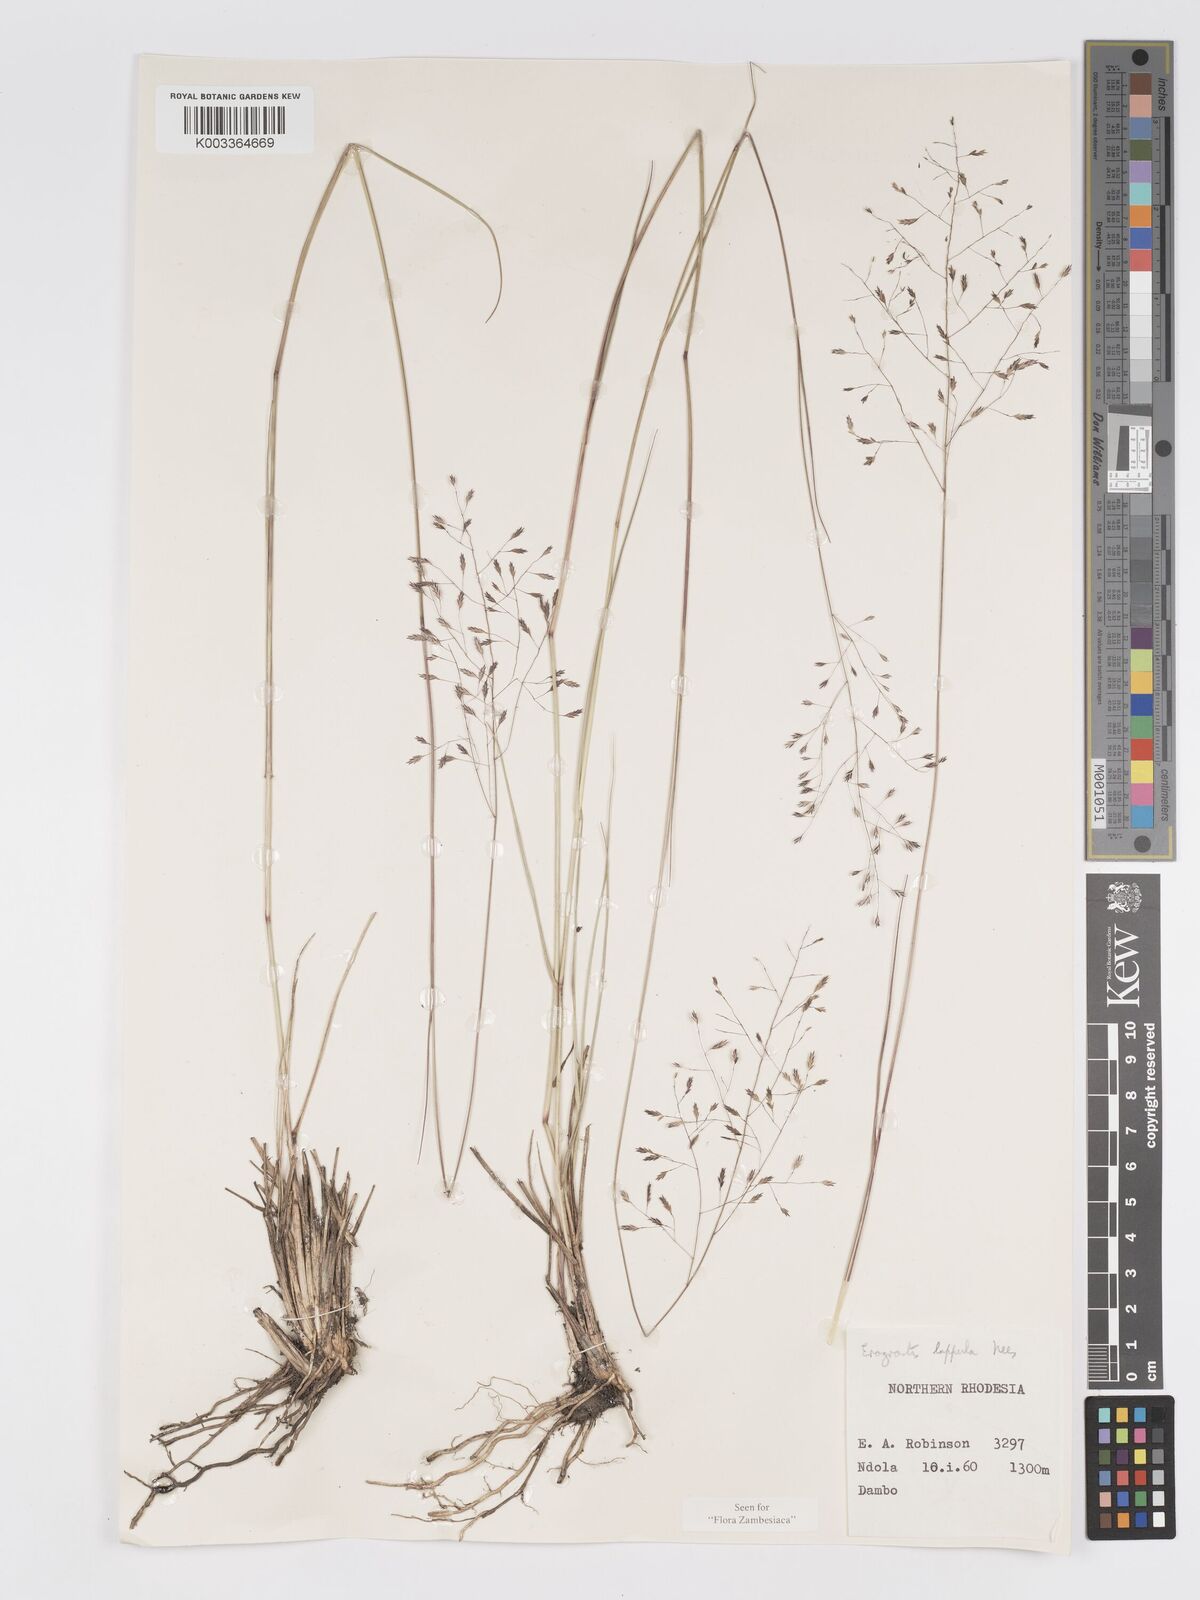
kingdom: Plantae
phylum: Tracheophyta
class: Liliopsida
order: Poales
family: Poaceae
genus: Eragrostis
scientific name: Eragrostis lappula
